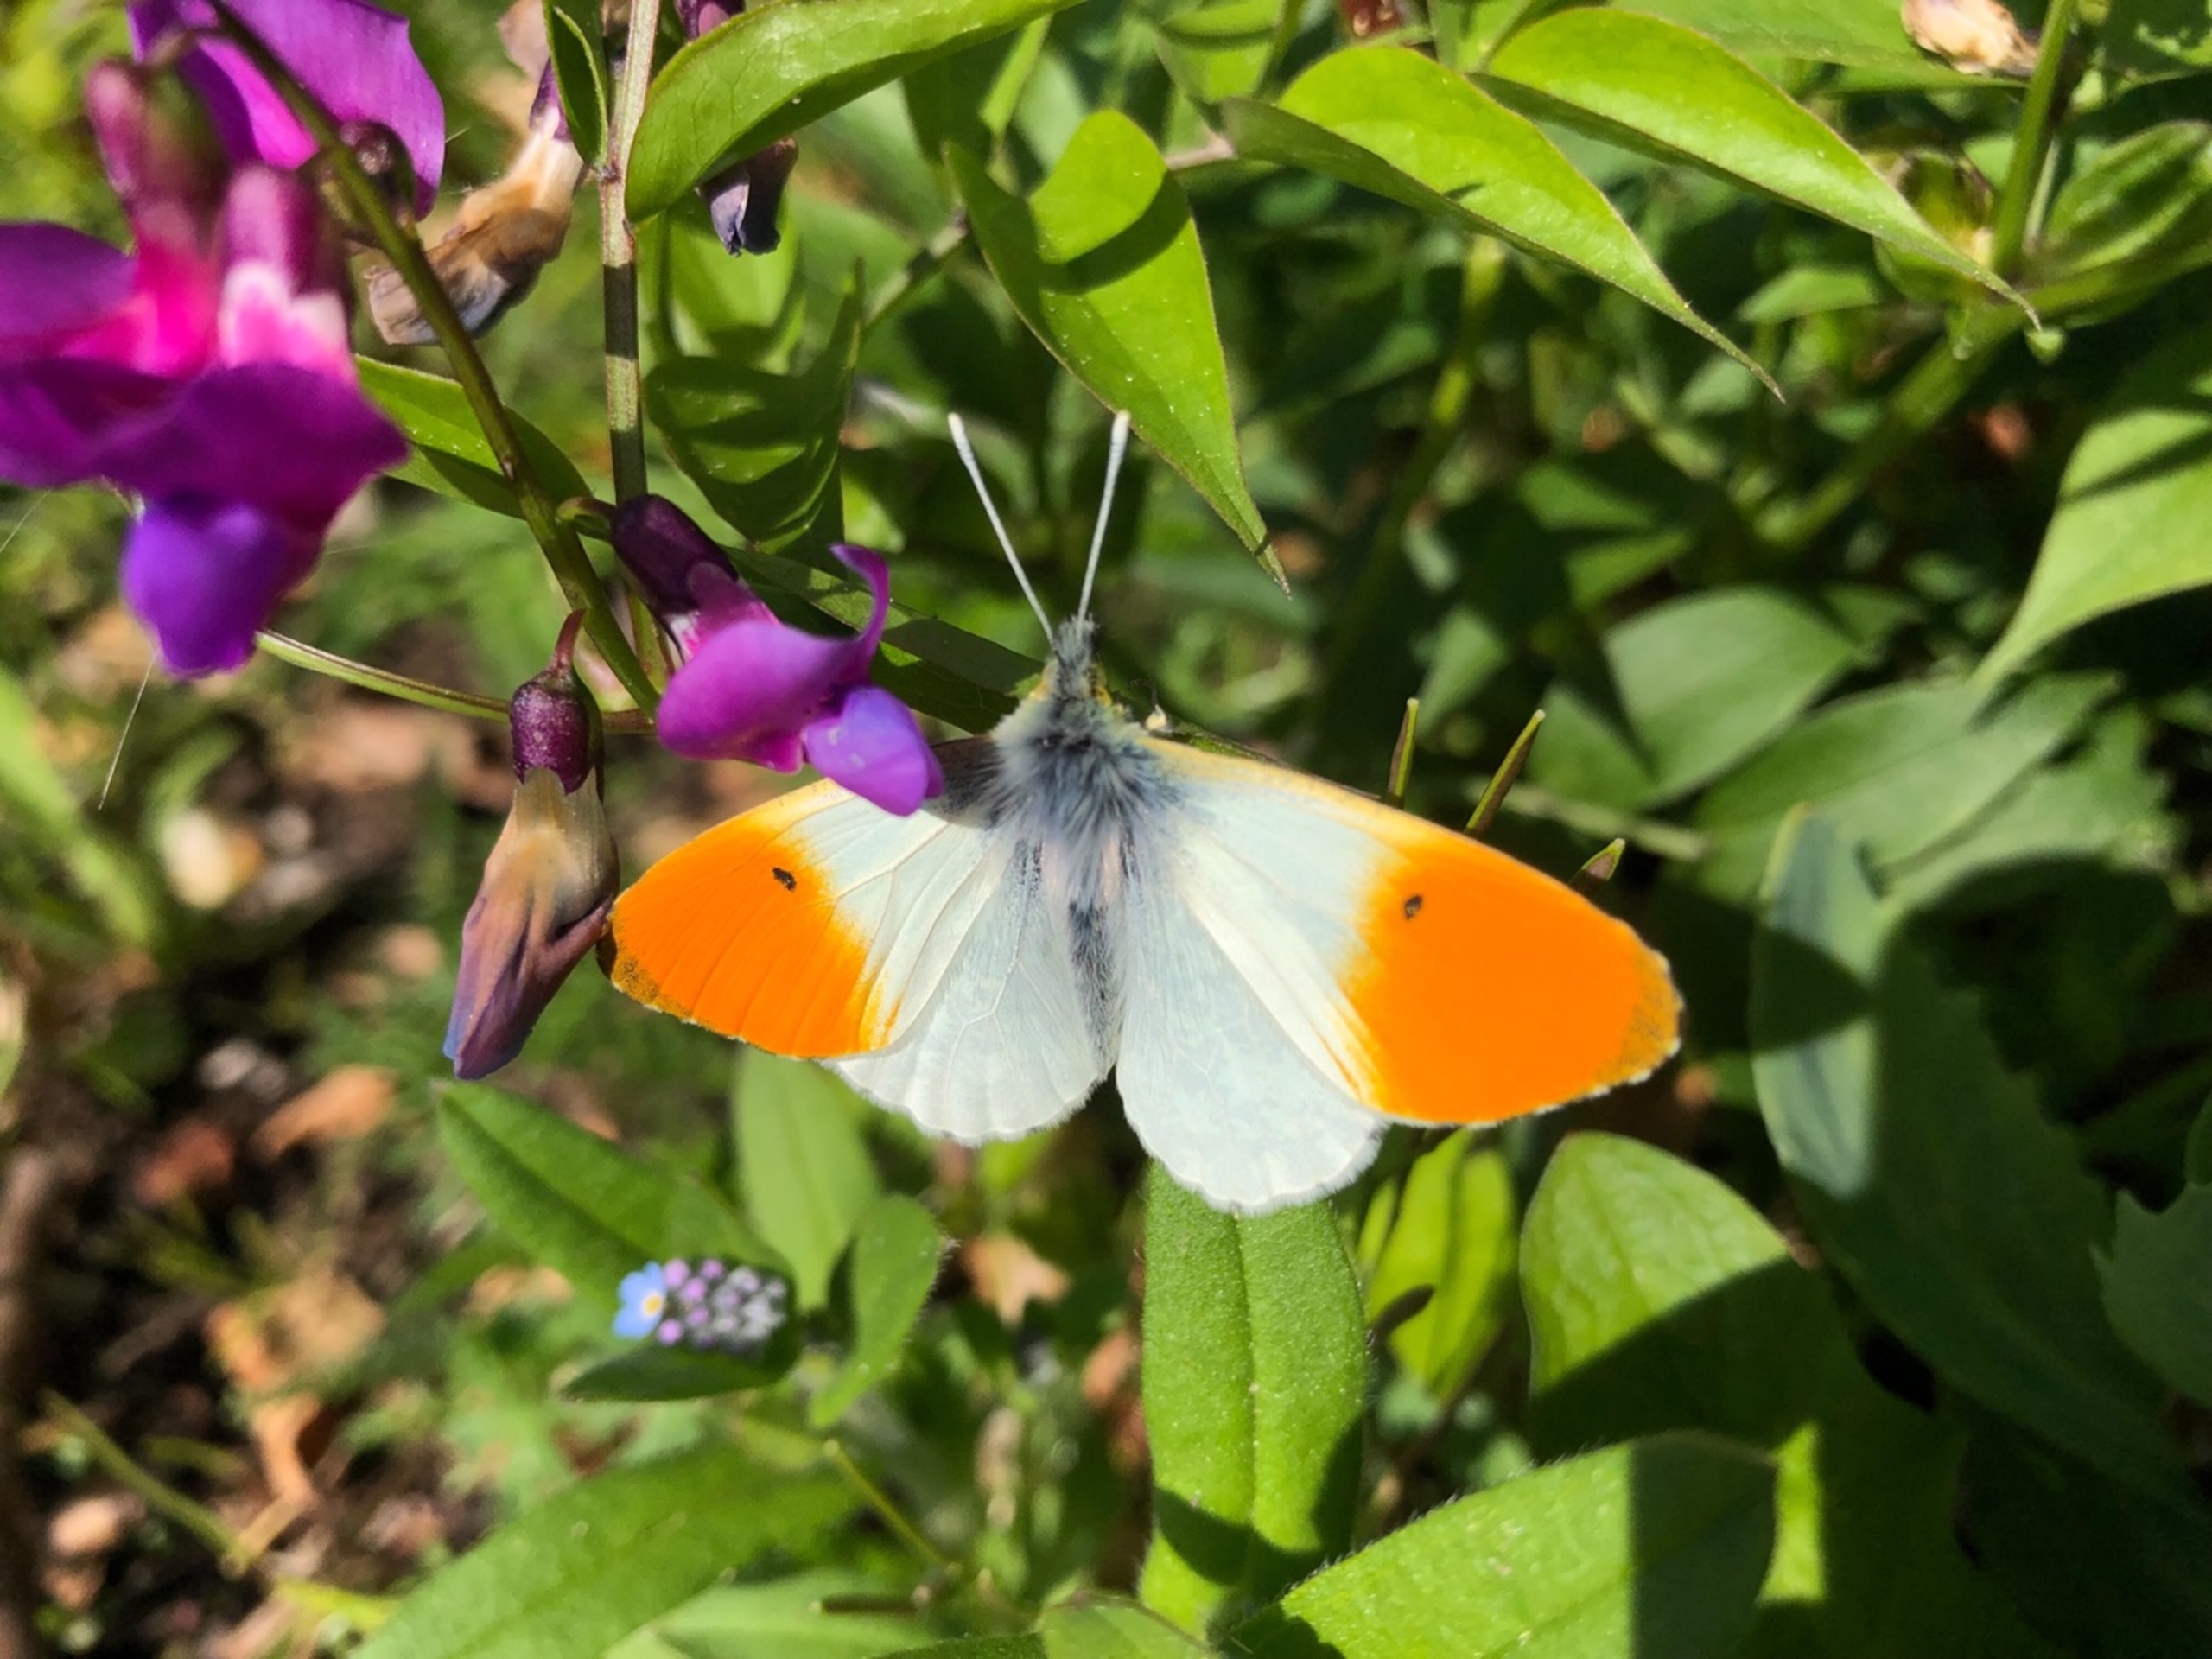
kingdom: Animalia
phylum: Arthropoda
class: Insecta
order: Lepidoptera
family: Pieridae
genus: Anthocharis
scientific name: Anthocharis cardamines
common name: Aurora
